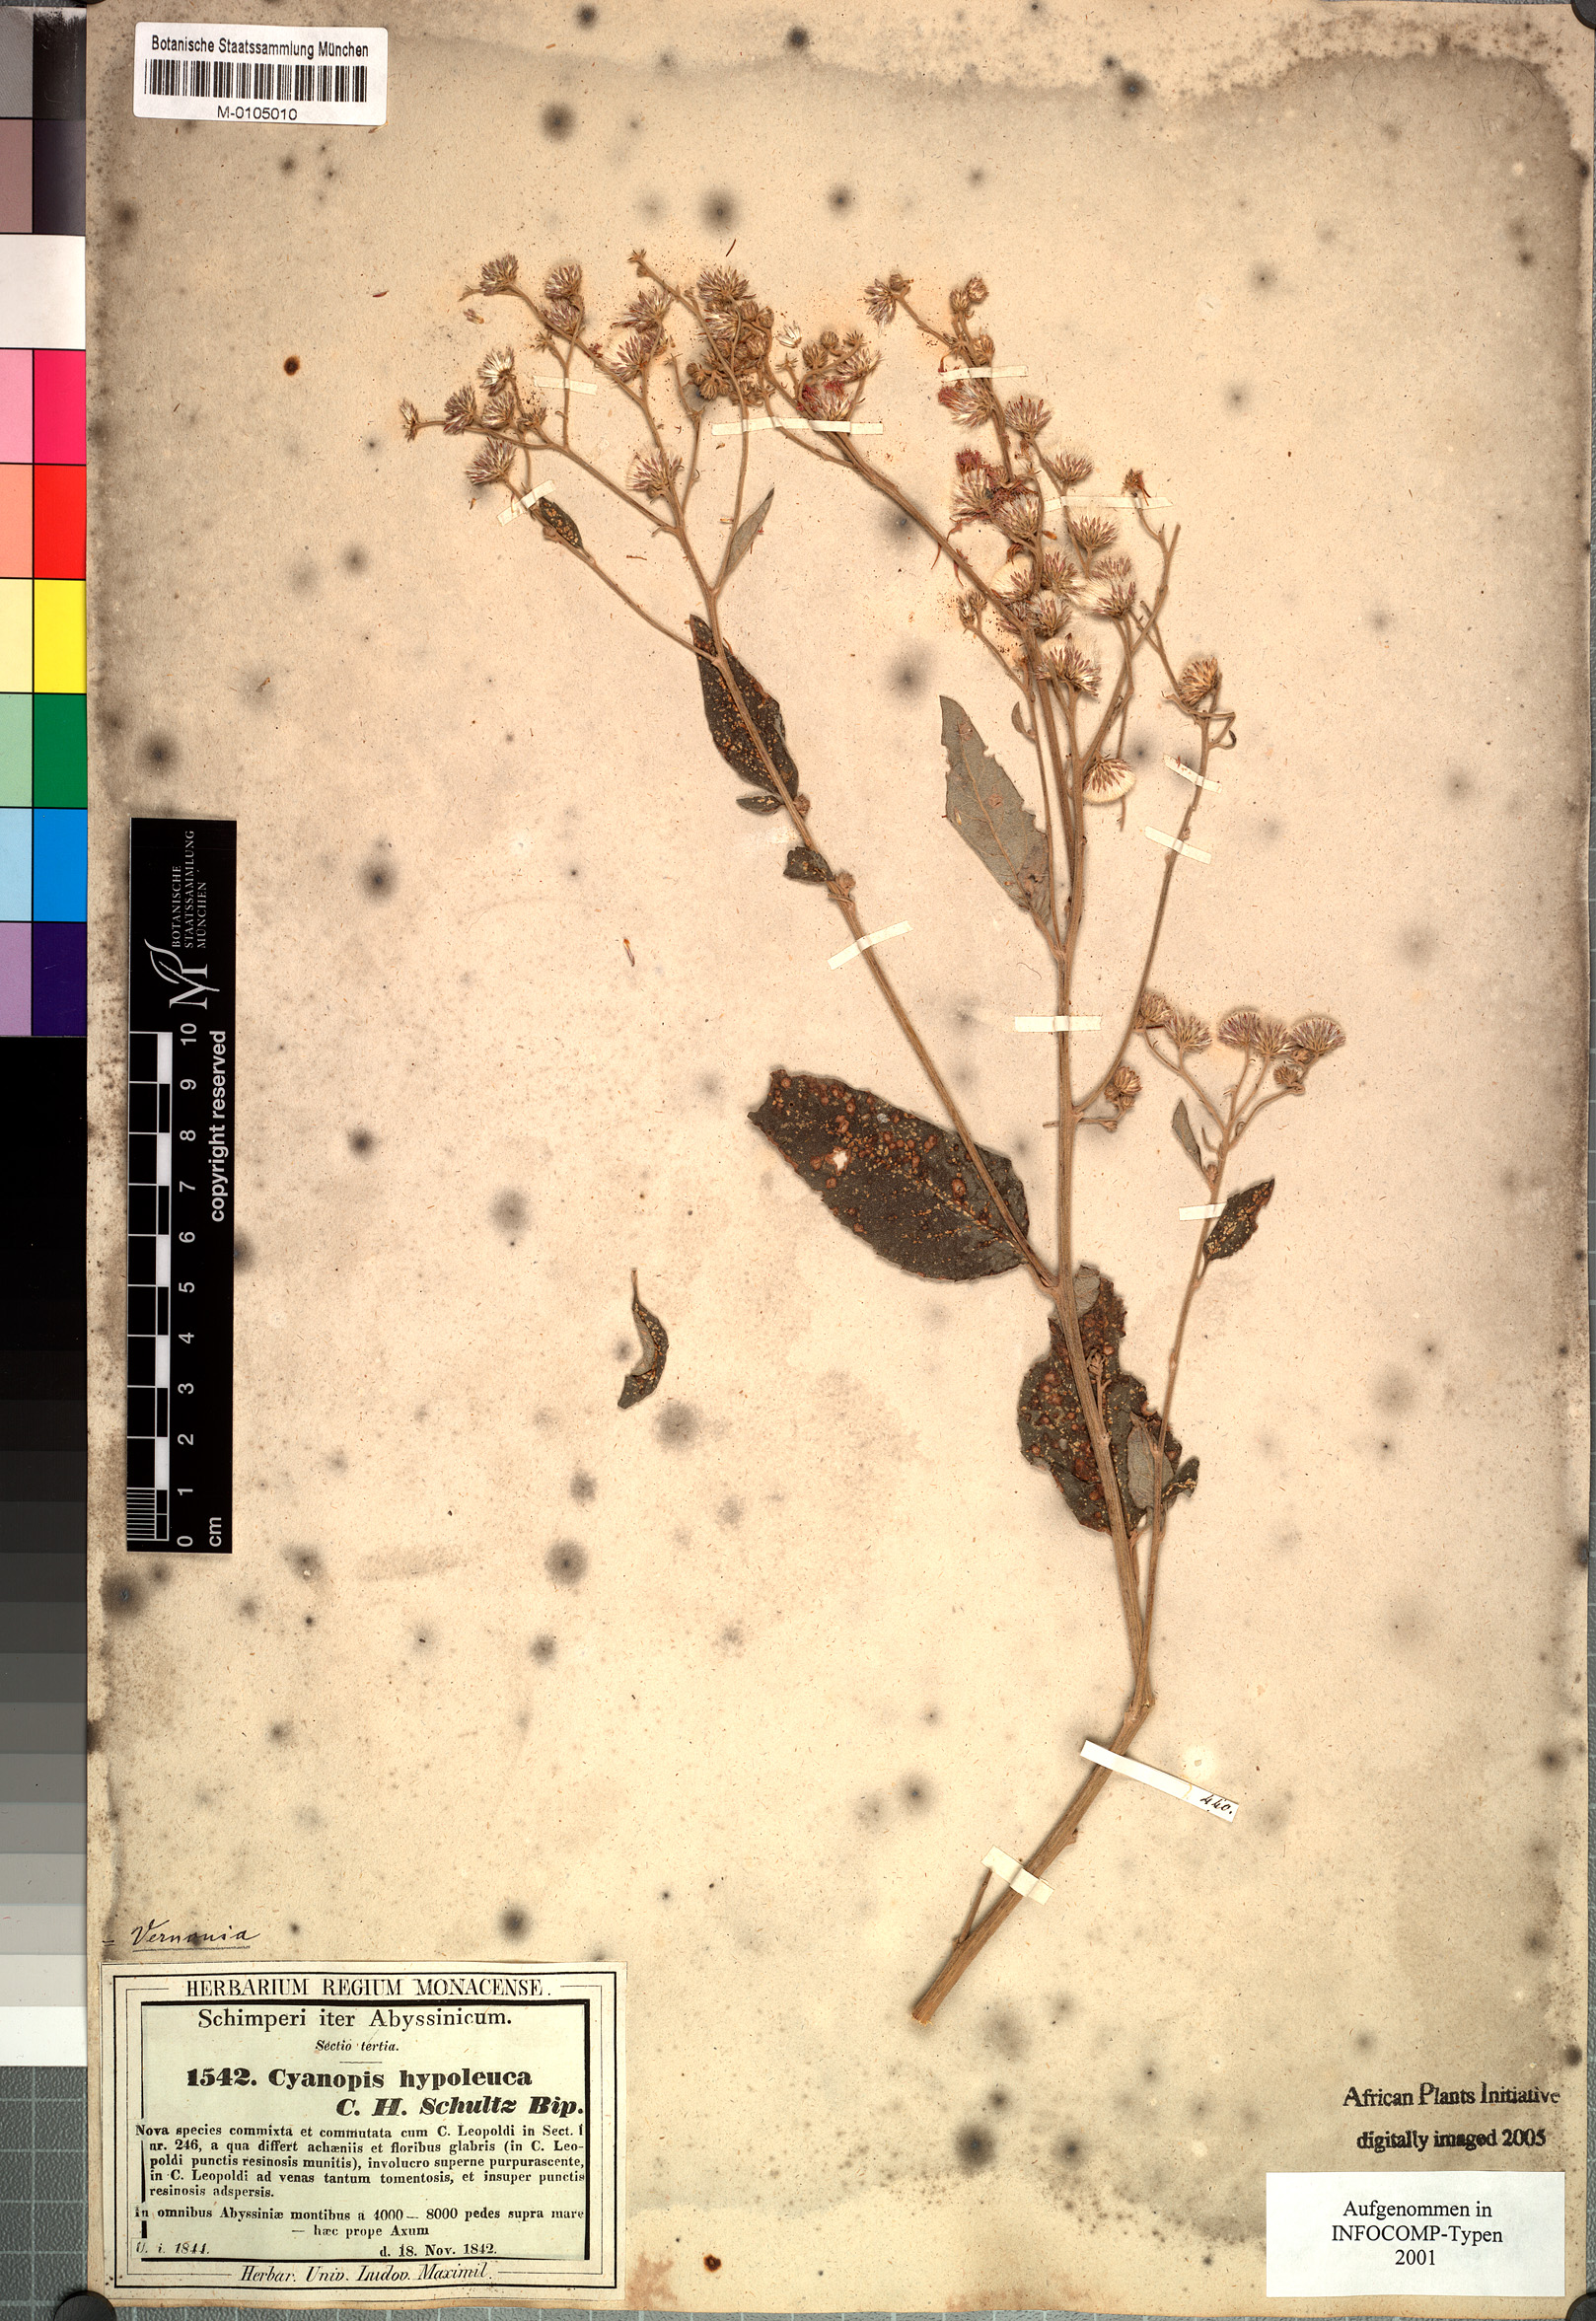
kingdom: Plantae
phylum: Tracheophyta
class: Magnoliopsida
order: Asterales
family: Asteraceae
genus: Vernonia
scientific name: Vernonia bipontini
